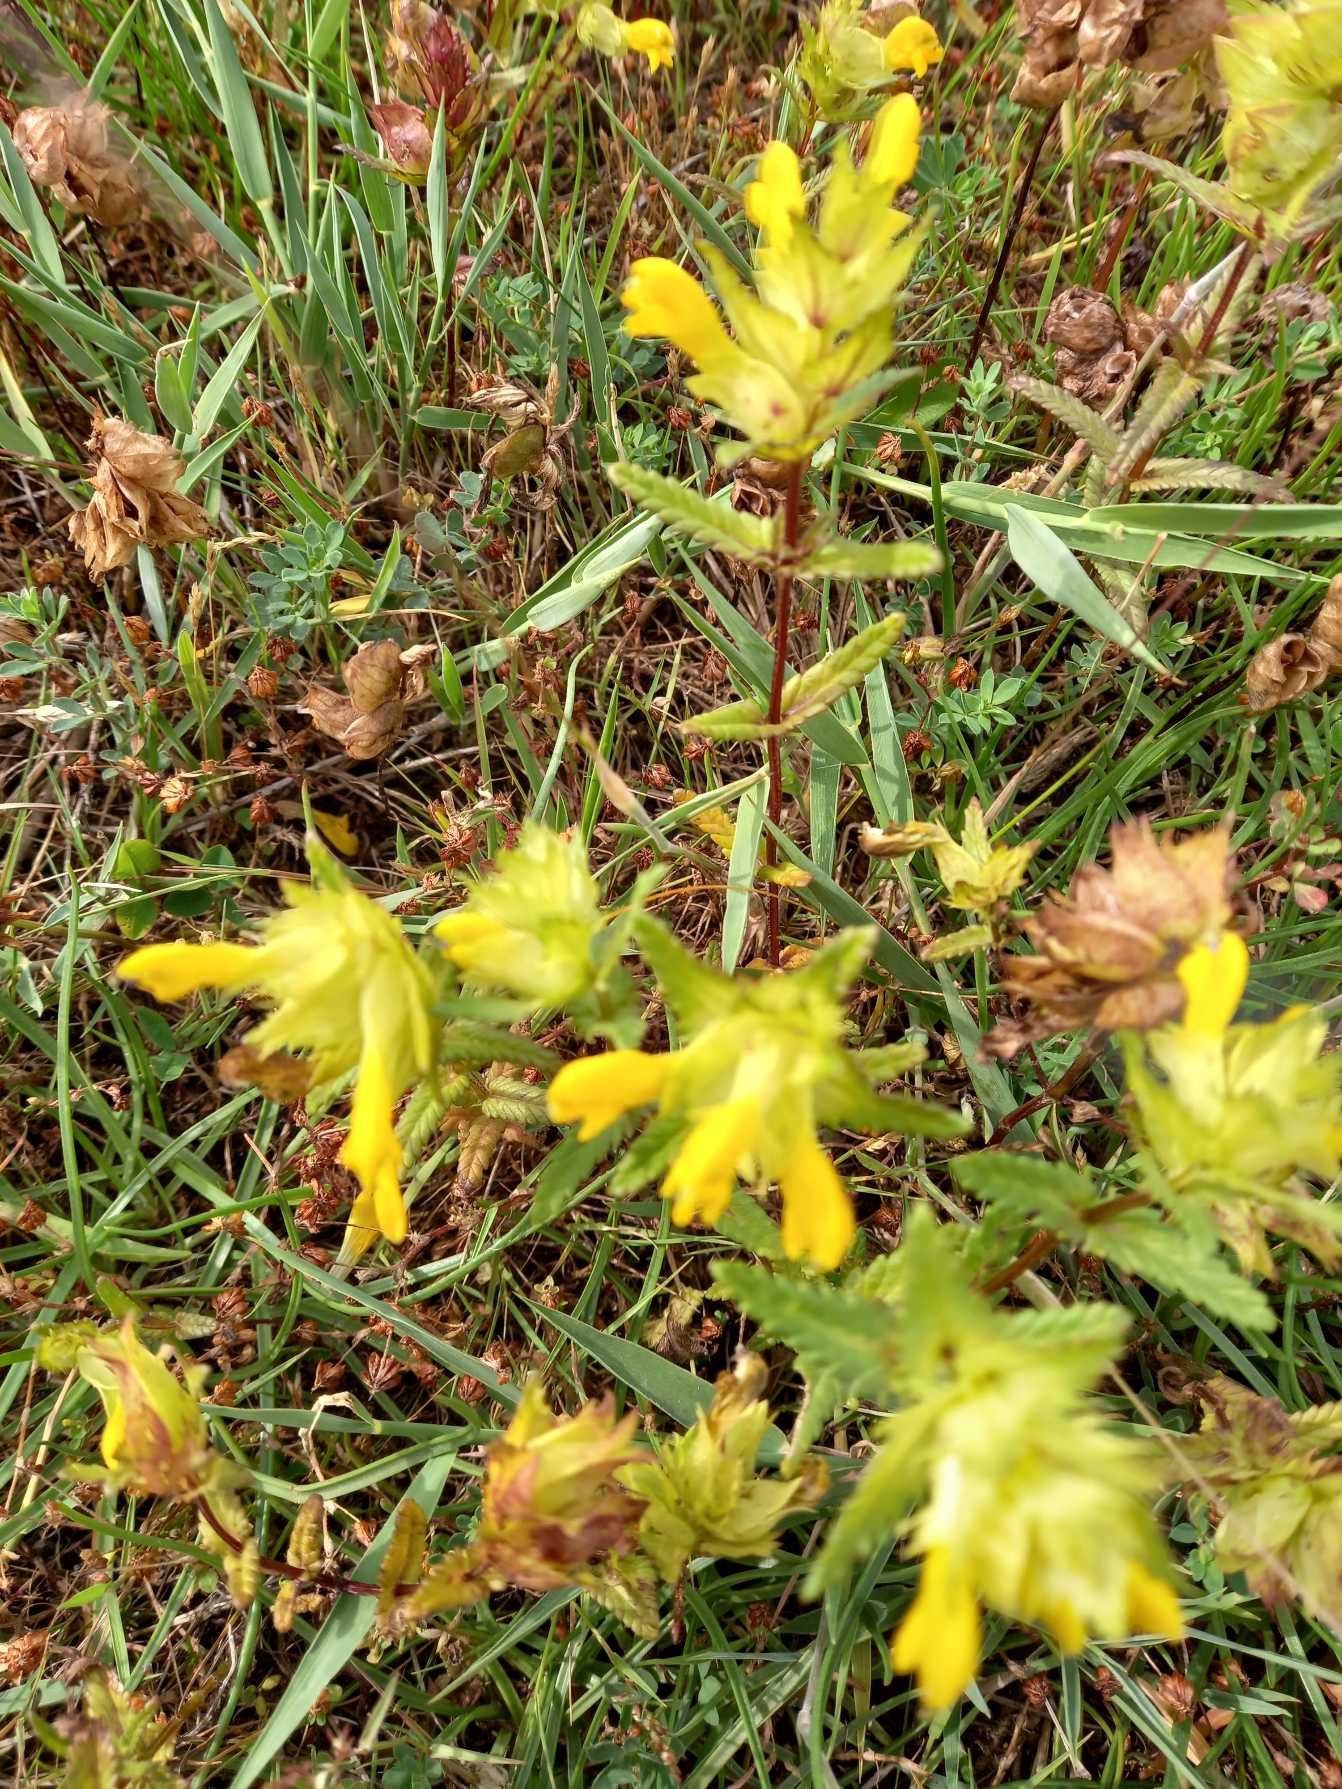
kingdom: Plantae
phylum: Tracheophyta
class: Magnoliopsida
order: Lamiales
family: Orobanchaceae
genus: Rhinanthus
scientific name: Rhinanthus
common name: Stor skjaller
